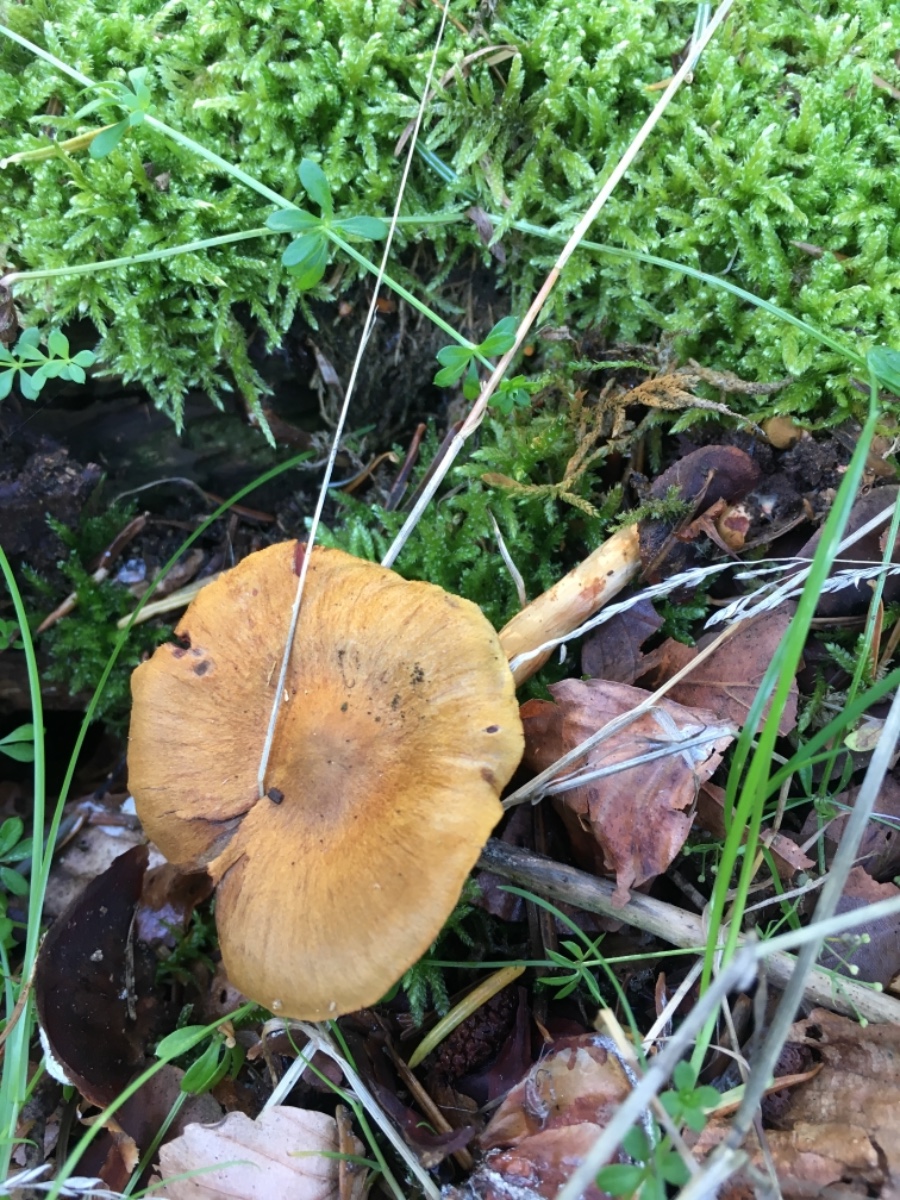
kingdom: Fungi
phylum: Basidiomycota
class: Agaricomycetes
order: Agaricales
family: Cortinariaceae
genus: Cortinarius
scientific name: Cortinarius
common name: cinnoberbladet slørhat
